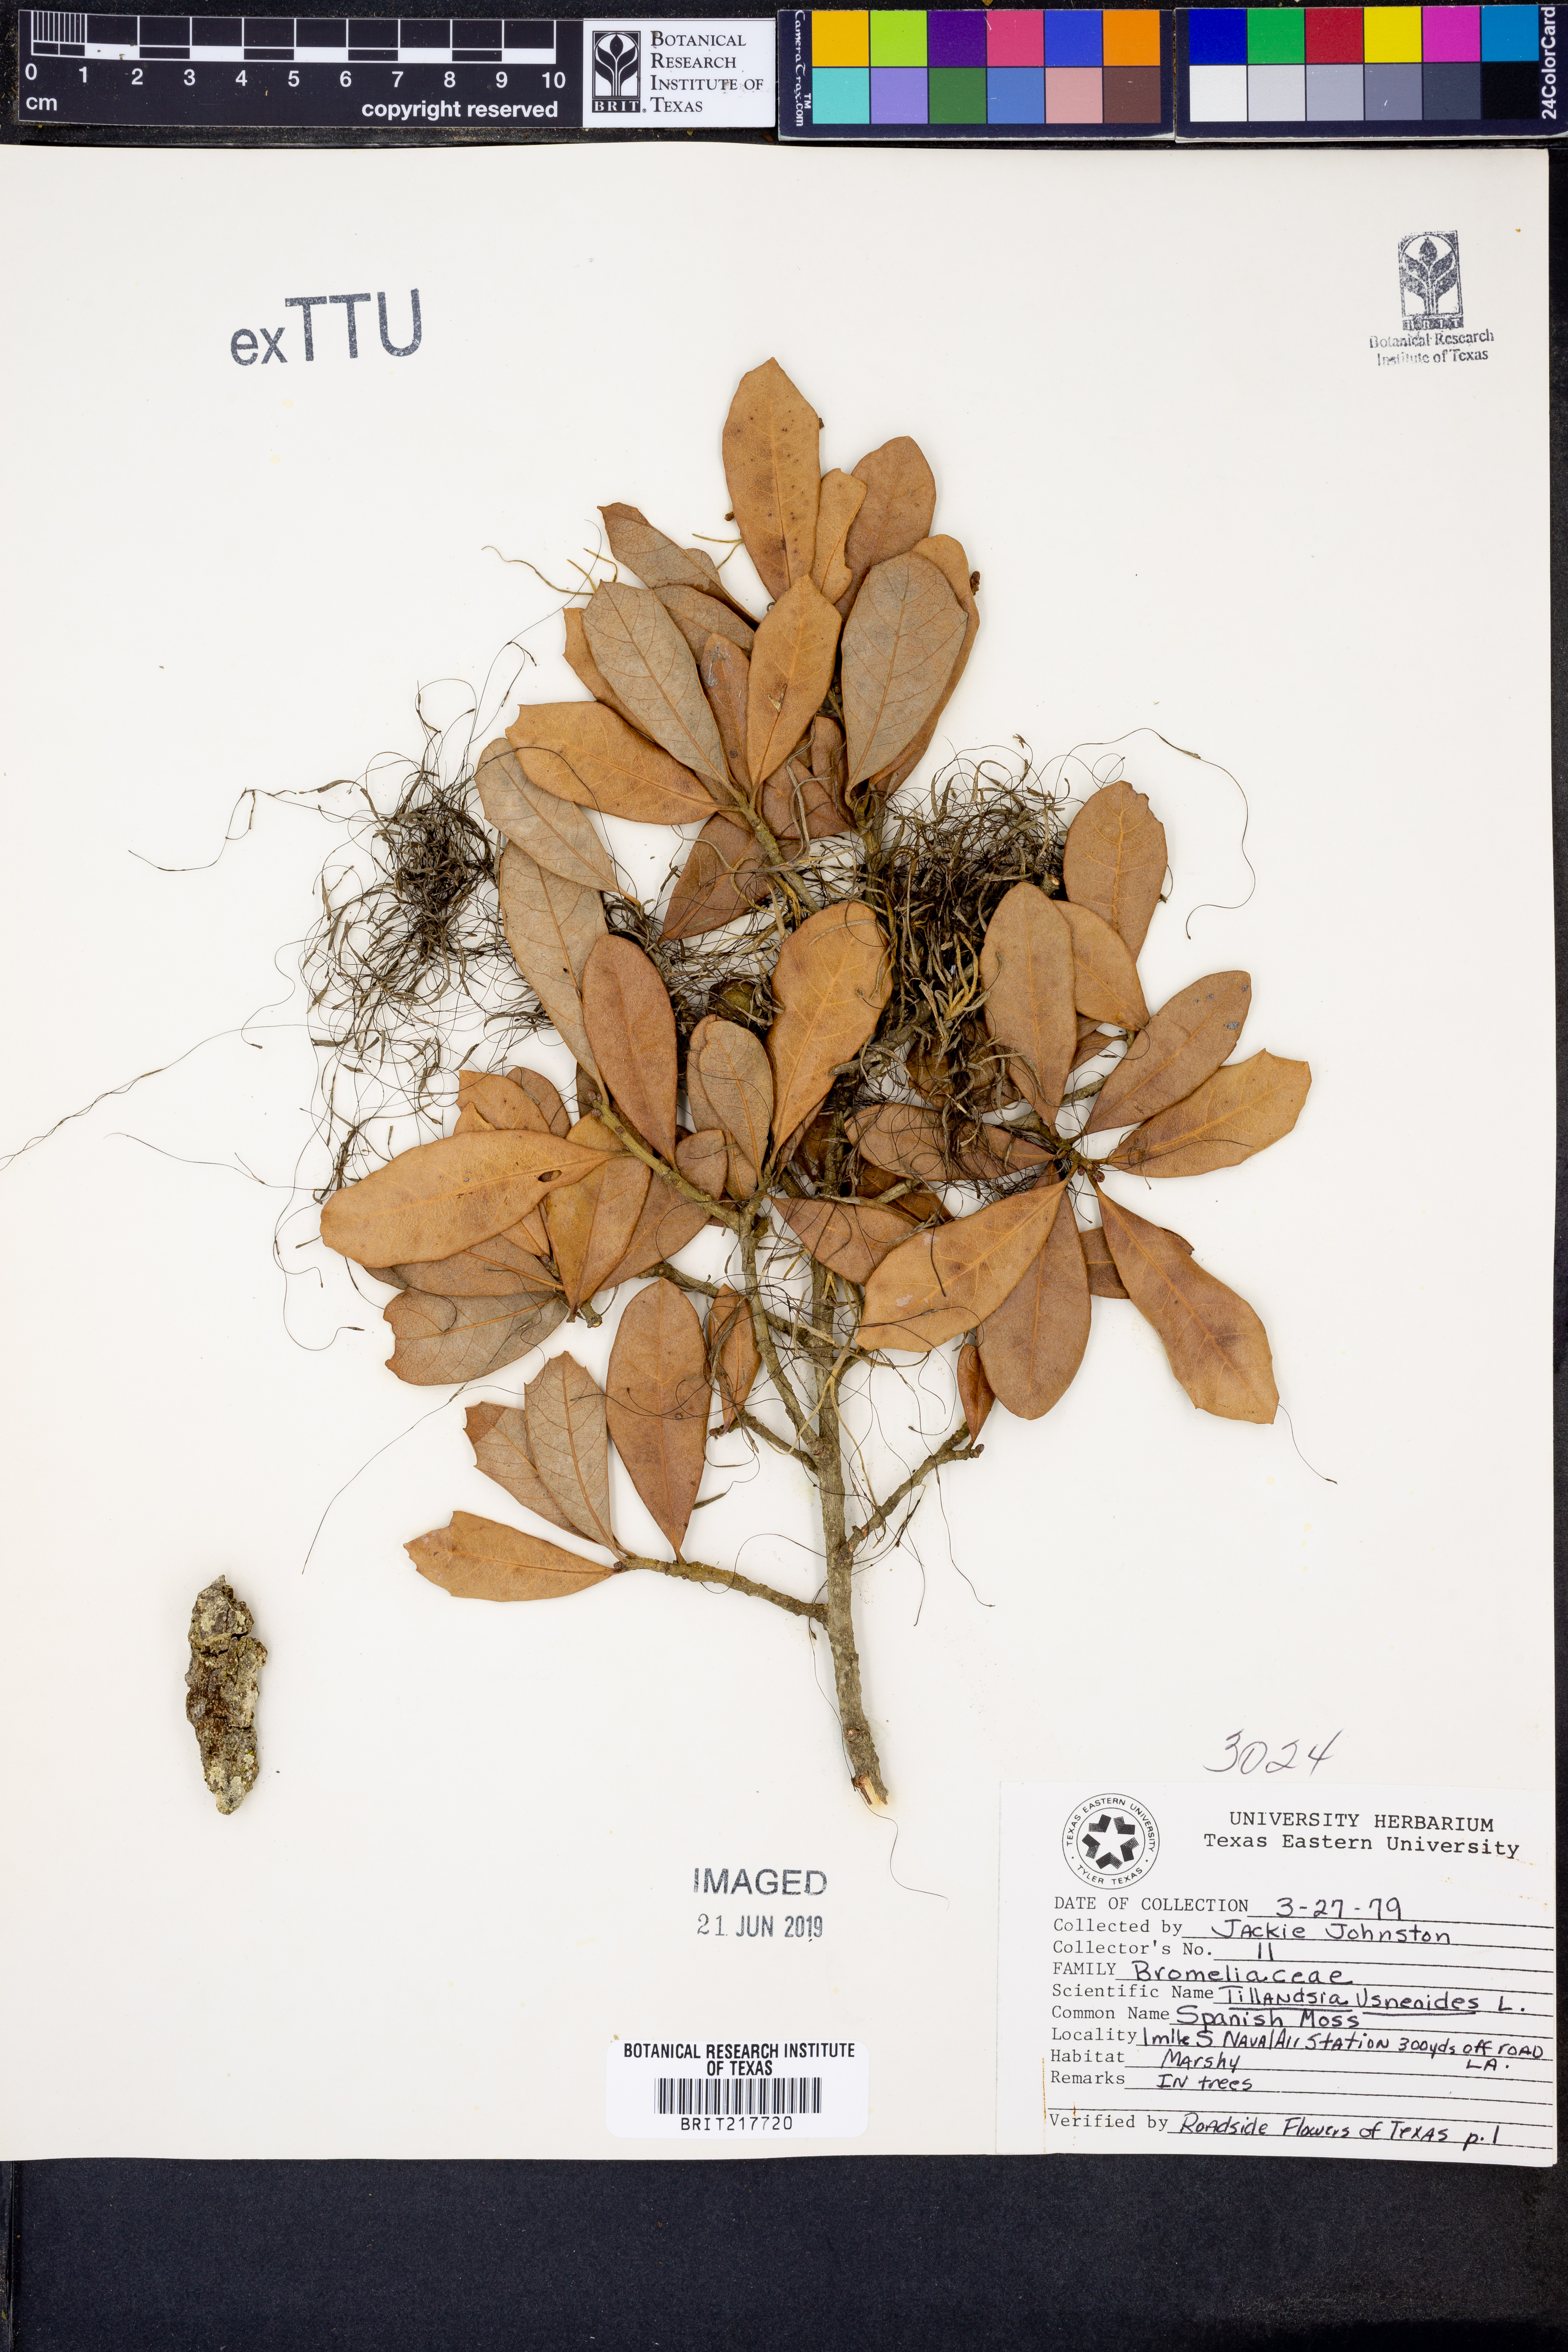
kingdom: Plantae
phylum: Tracheophyta
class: Liliopsida
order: Poales
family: Bromeliaceae
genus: Tillandsia
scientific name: Tillandsia usneoides
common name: Spanish moss
